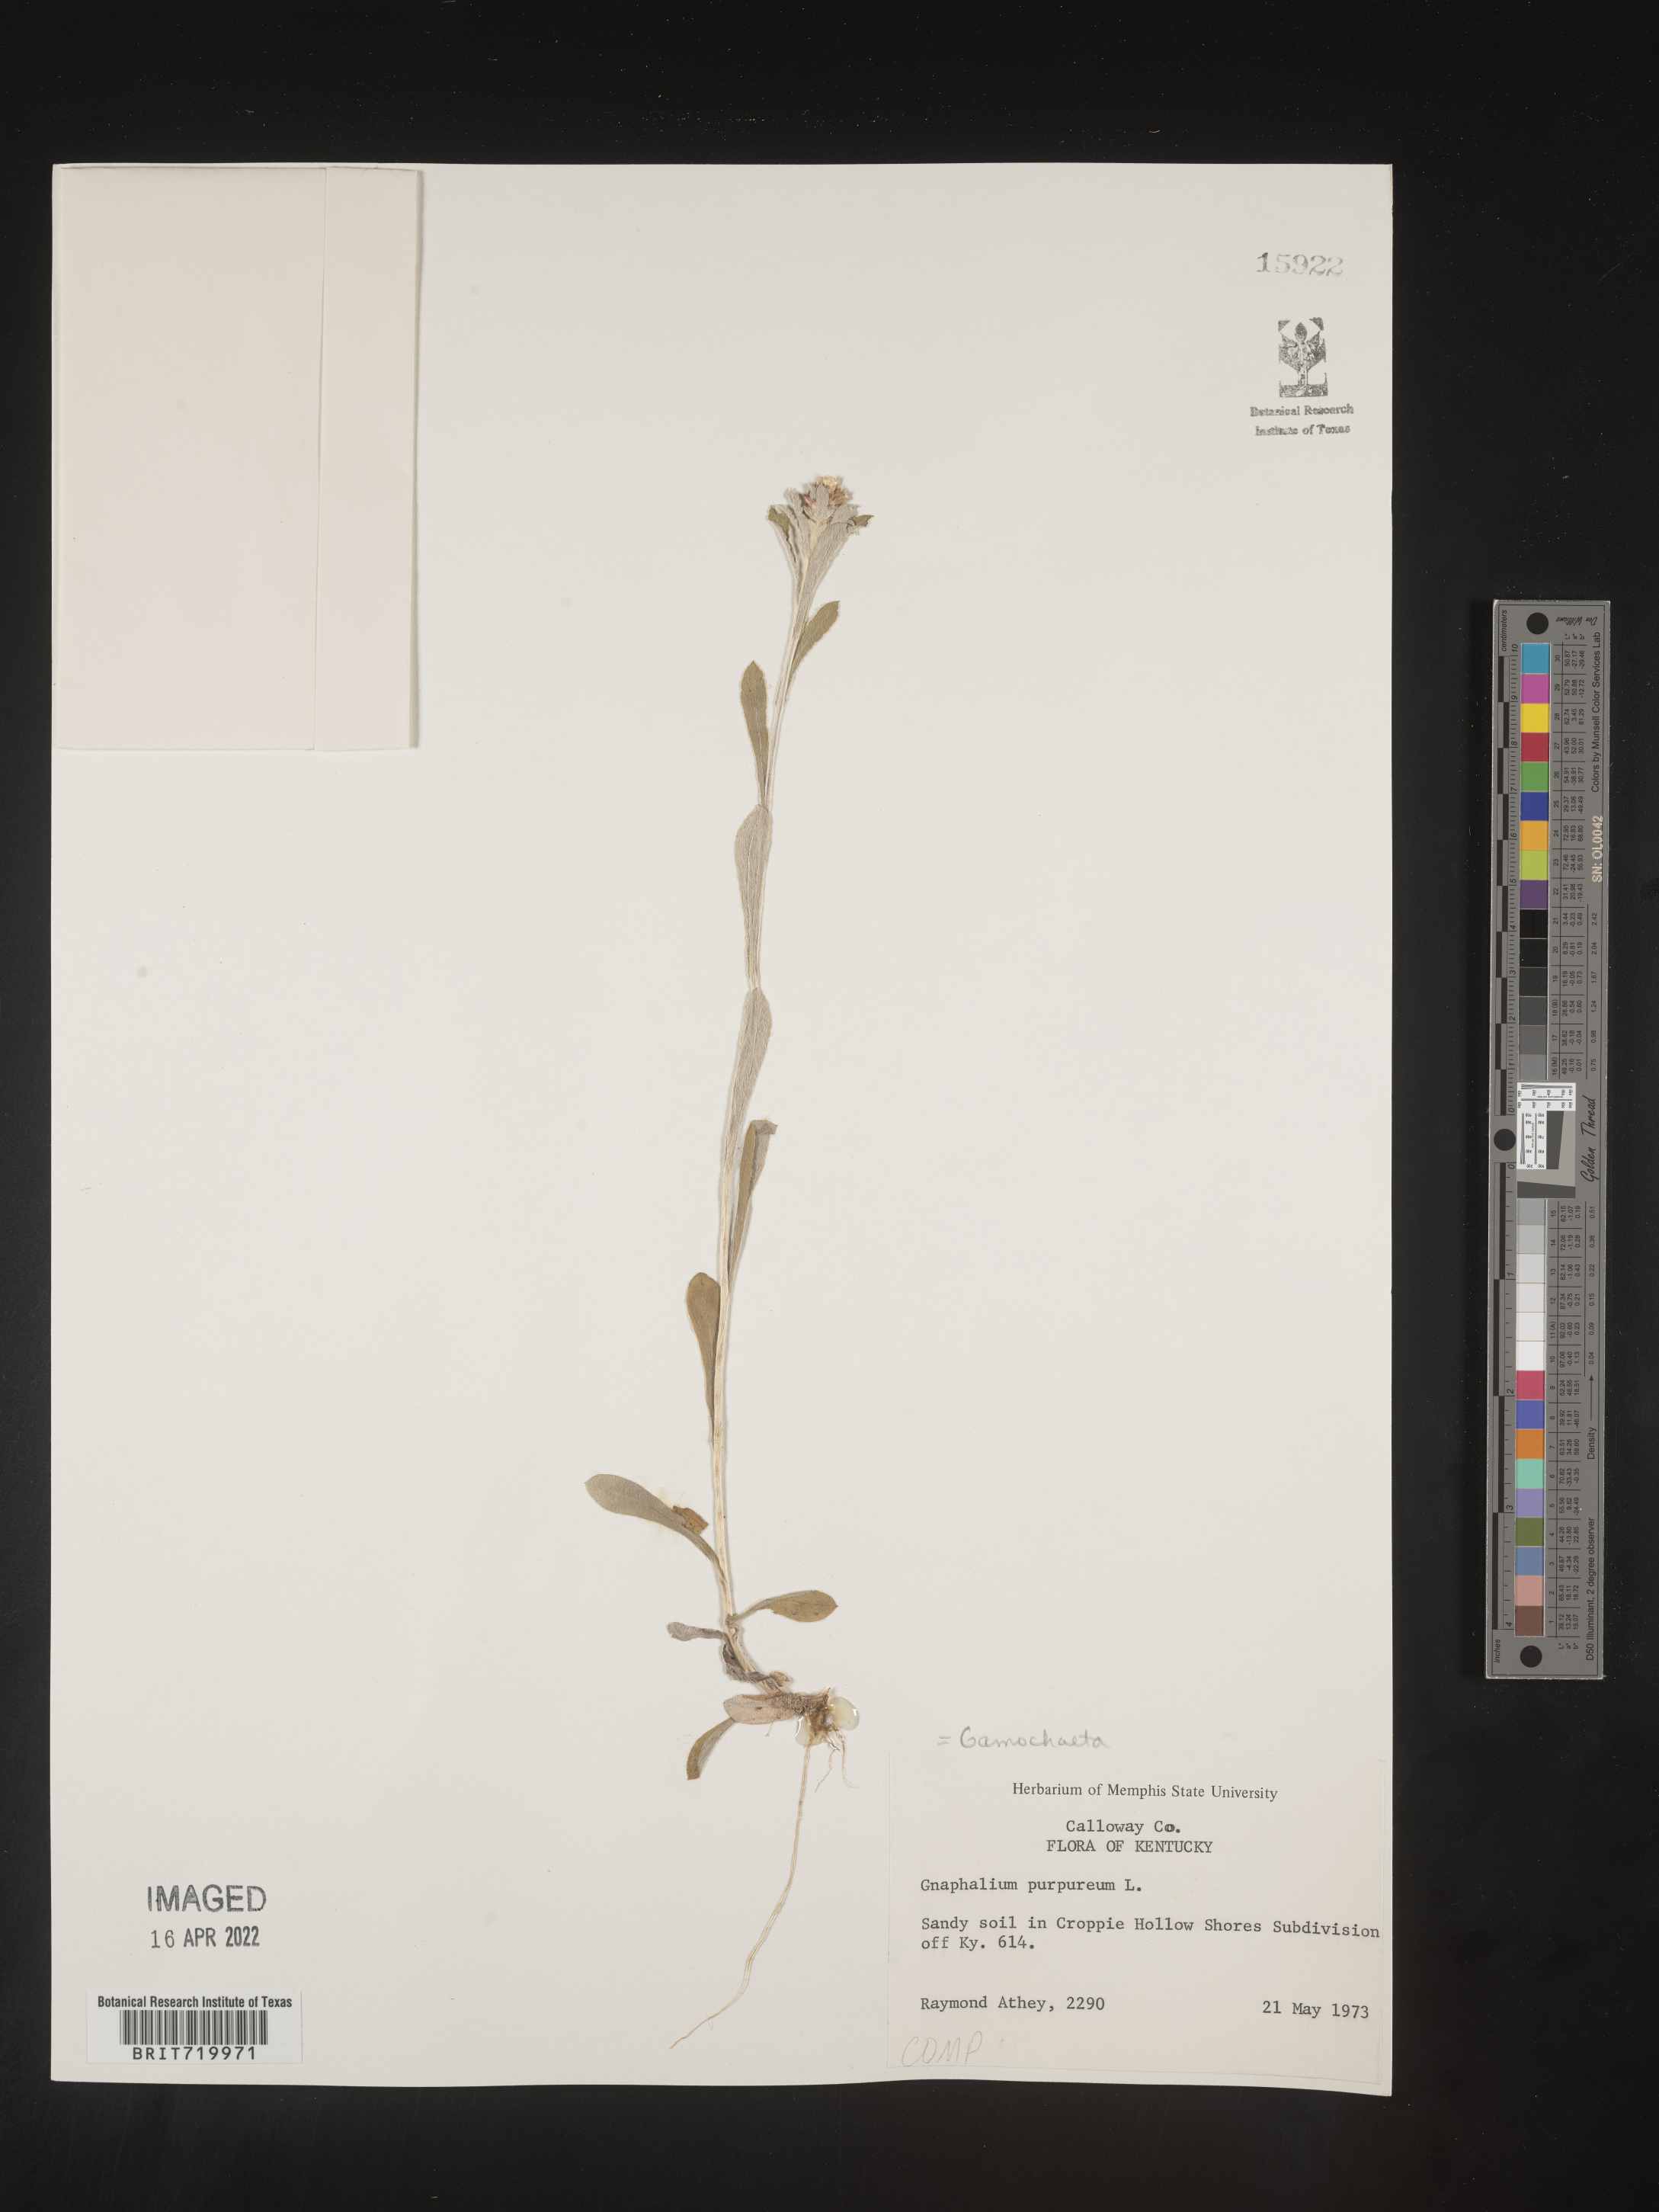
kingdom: Plantae
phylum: Tracheophyta
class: Magnoliopsida
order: Asterales
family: Asteraceae
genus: Gamochaeta
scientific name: Gamochaeta purpurea
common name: Purple cudweed
